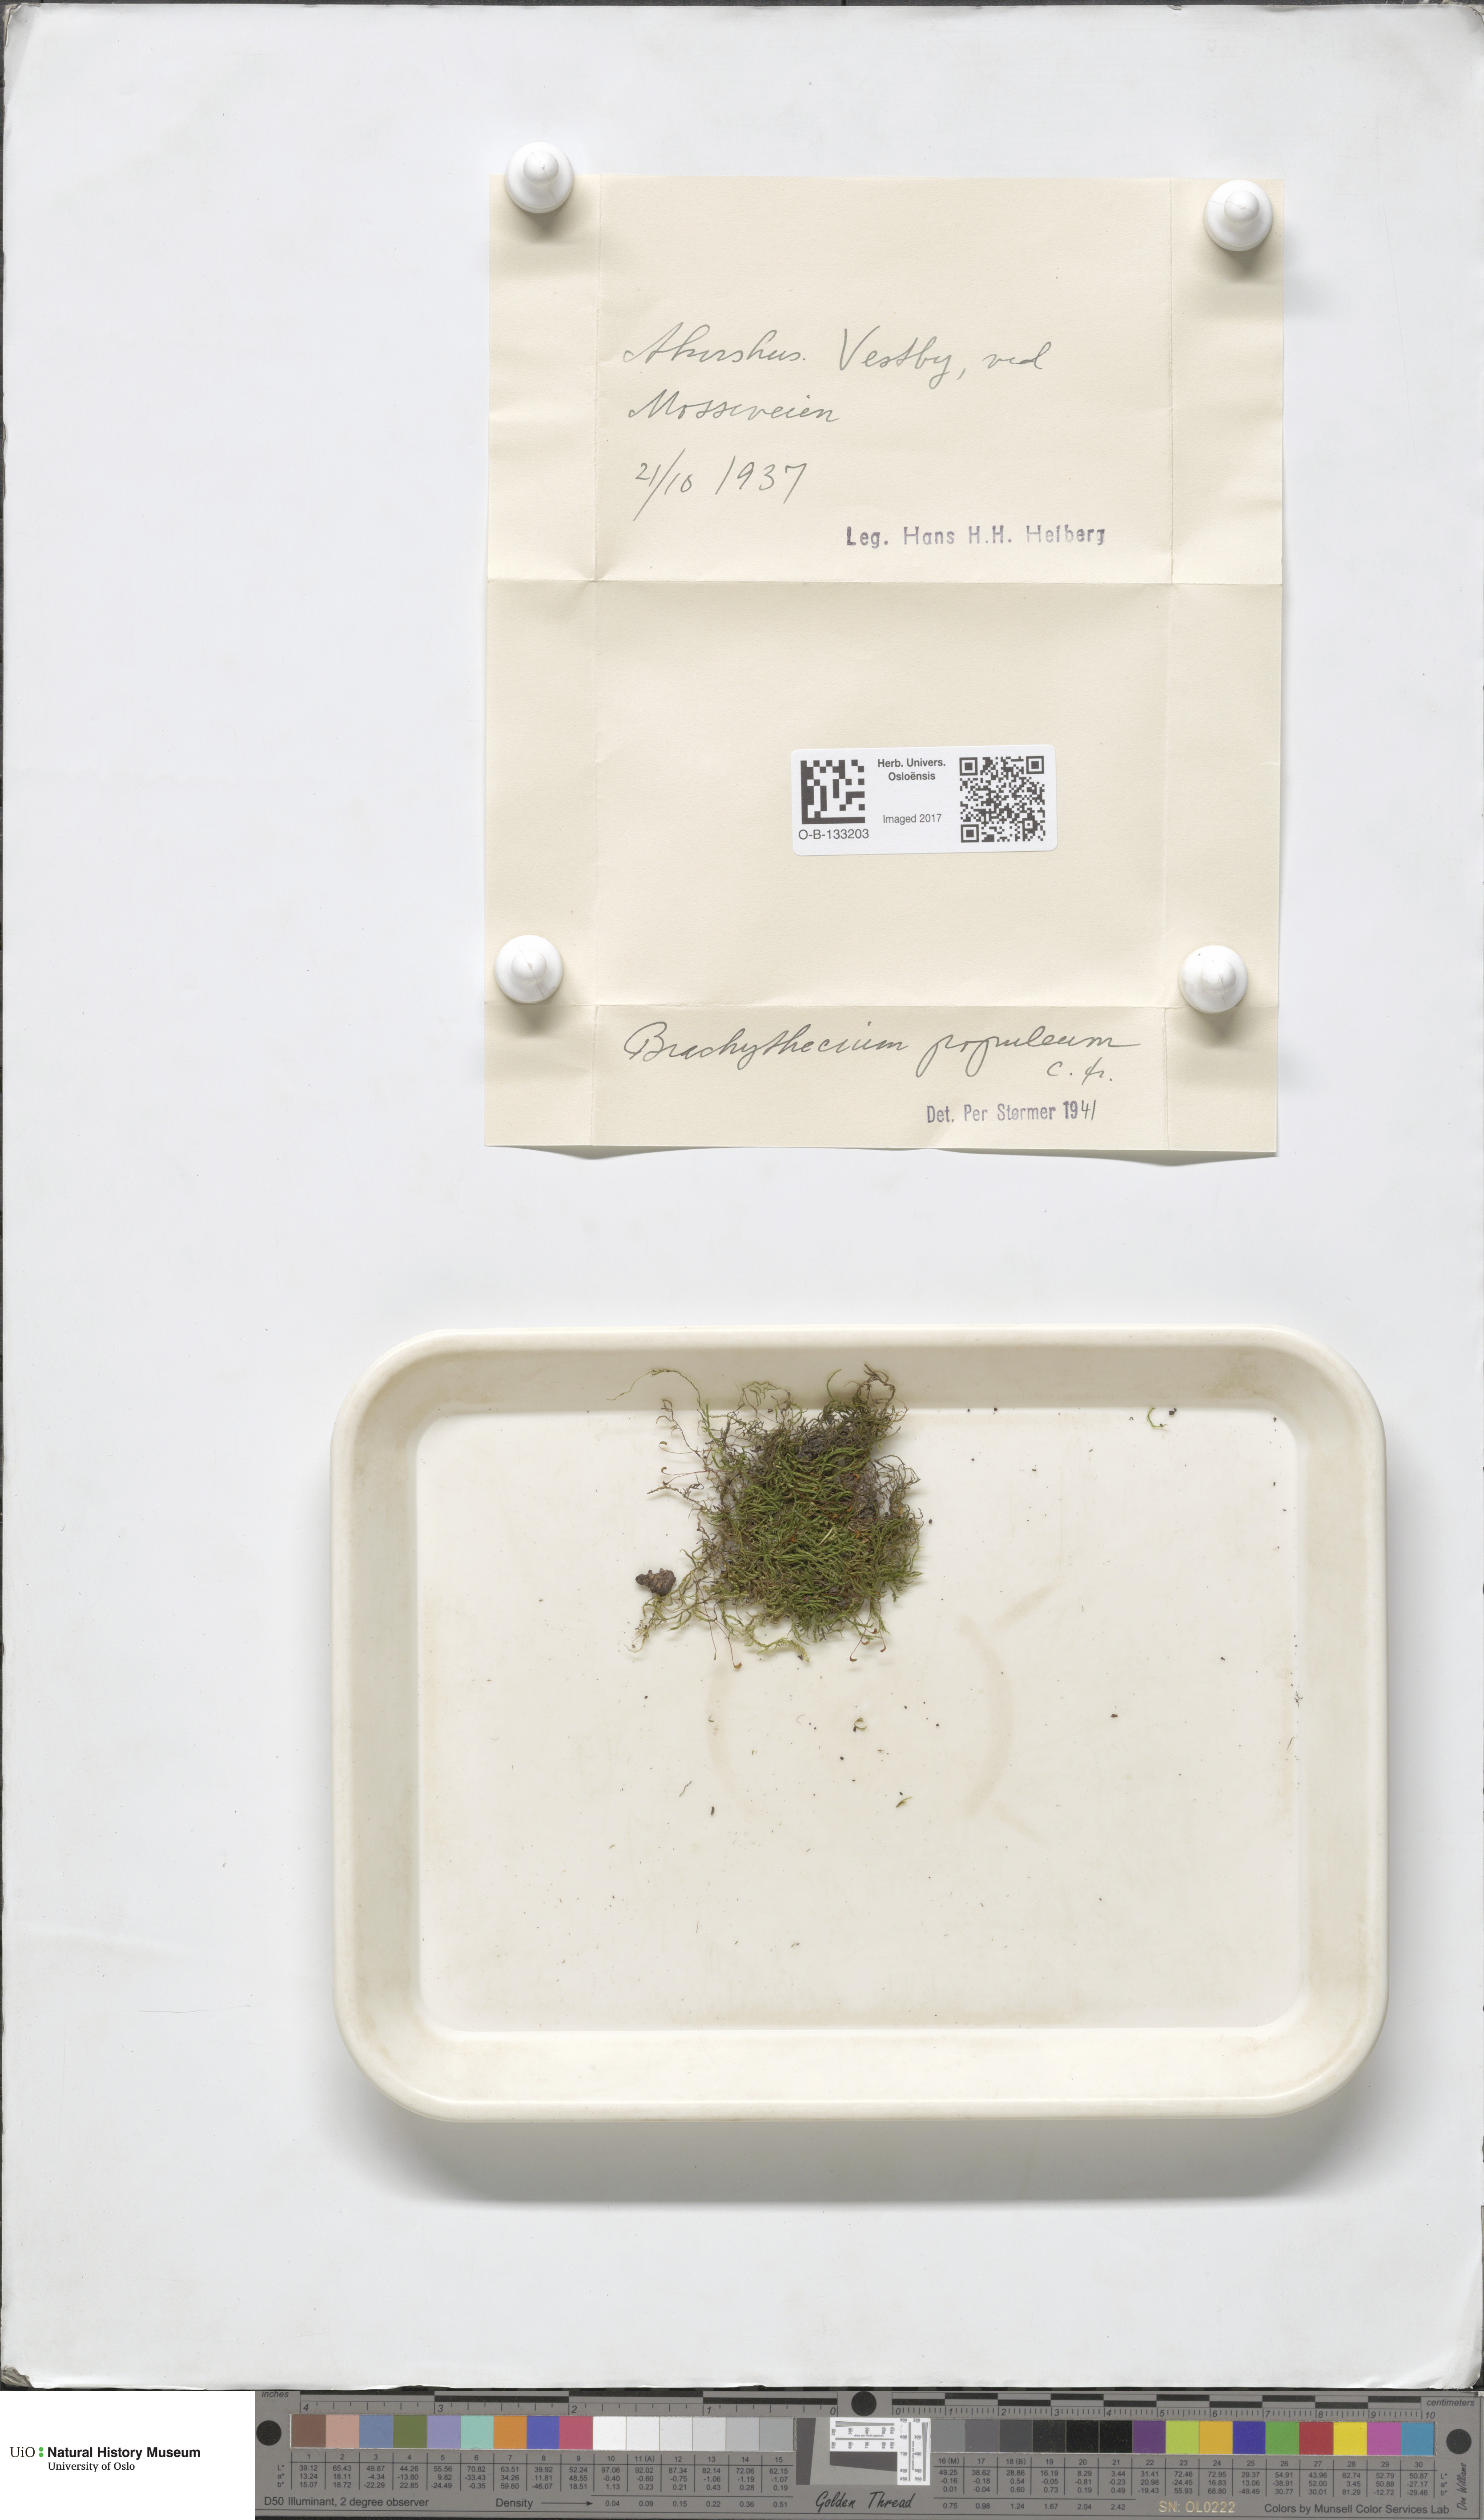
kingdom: Plantae
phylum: Bryophyta
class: Bryopsida
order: Hypnales
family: Brachytheciaceae
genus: Sciuro-hypnum
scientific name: Sciuro-hypnum plumosum
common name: Rusty feather-moss
